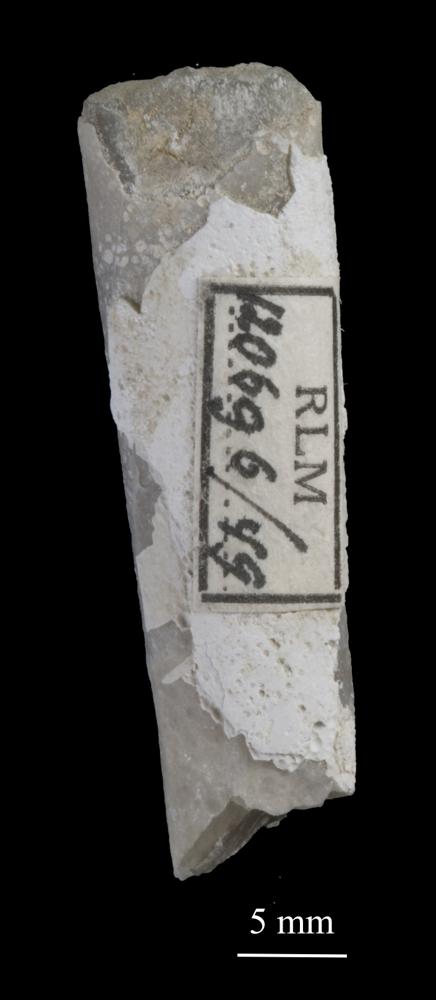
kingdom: Animalia
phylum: Arthropoda
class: Trilobita
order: Asaphida
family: Asaphidae
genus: Isotelus
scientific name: Isotelus
